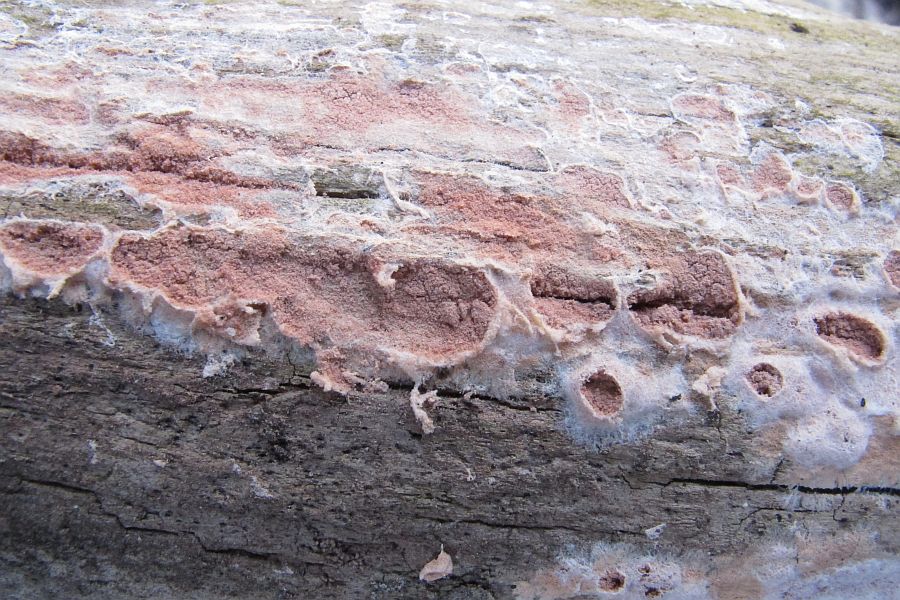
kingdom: Fungi
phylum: Basidiomycota
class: Agaricomycetes
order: Corticiales
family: Corticiaceae
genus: Corticium
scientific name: Corticium roseum
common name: rosa barkskind
